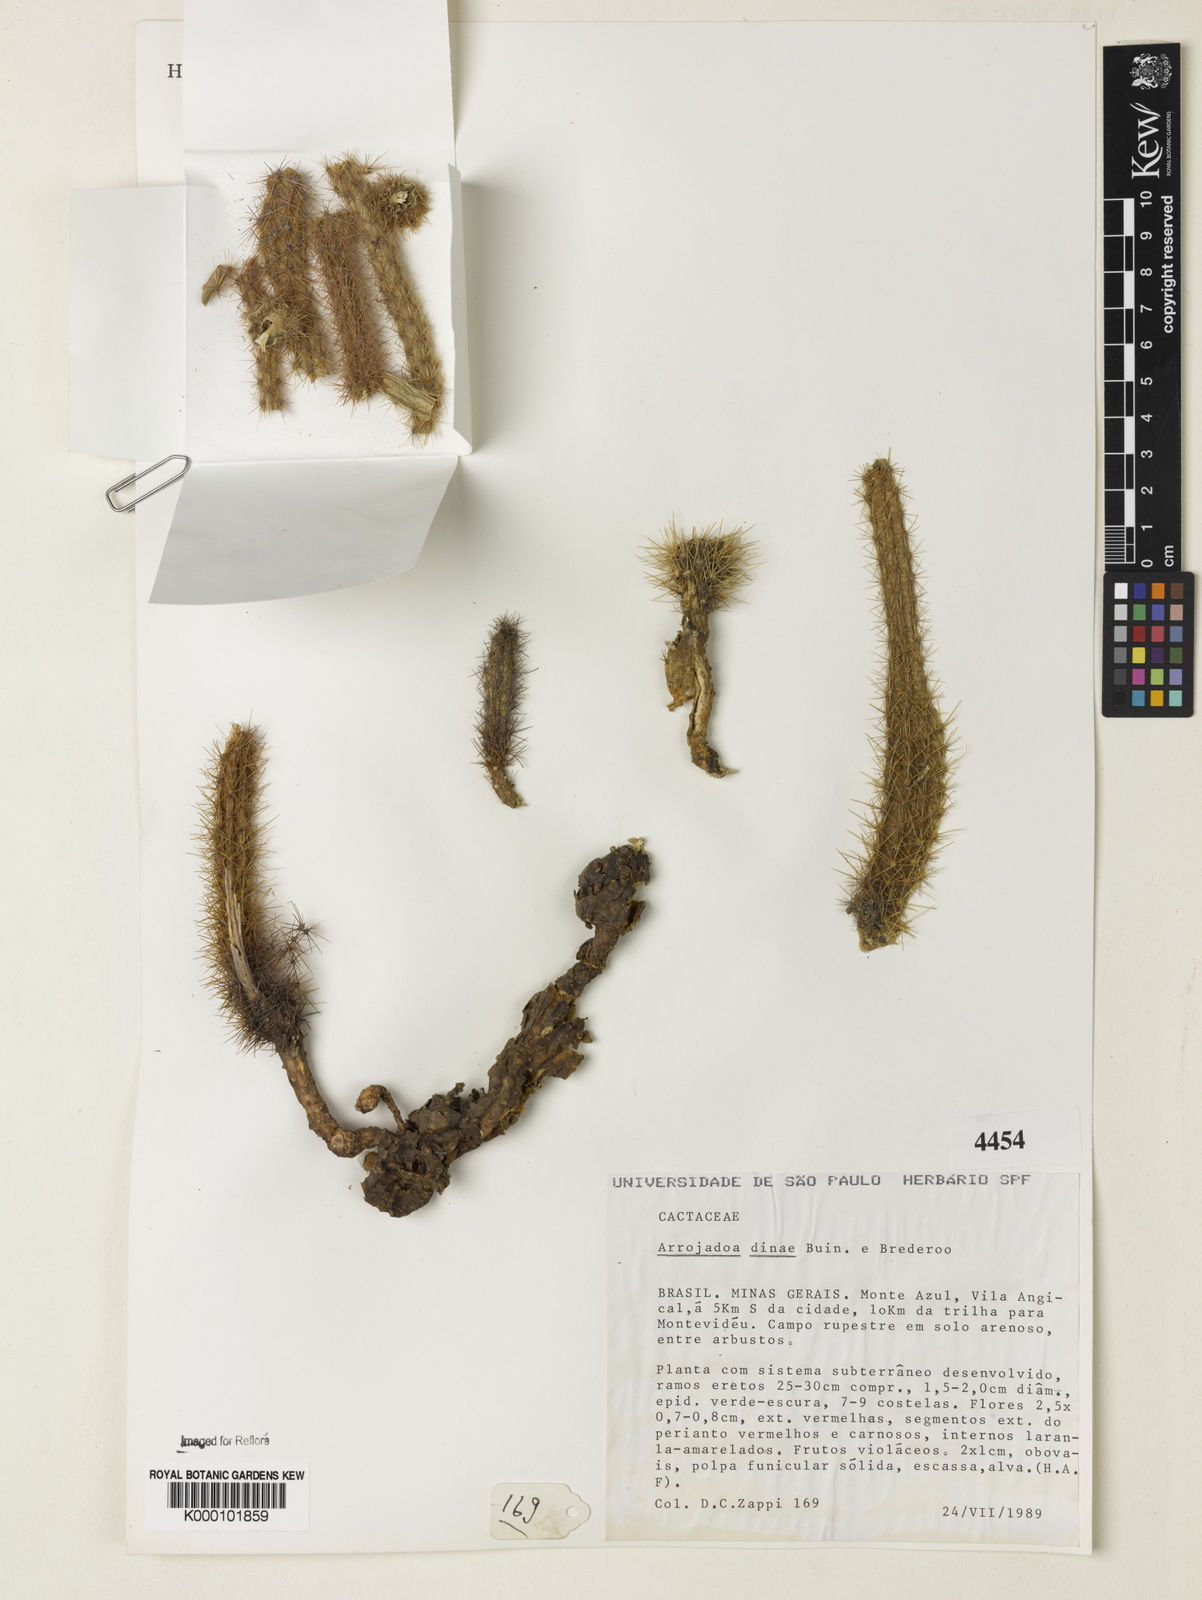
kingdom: Plantae
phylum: Tracheophyta
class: Magnoliopsida
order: Caryophyllales
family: Cactaceae
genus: Arrojadoa
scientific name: Arrojadoa dinae
